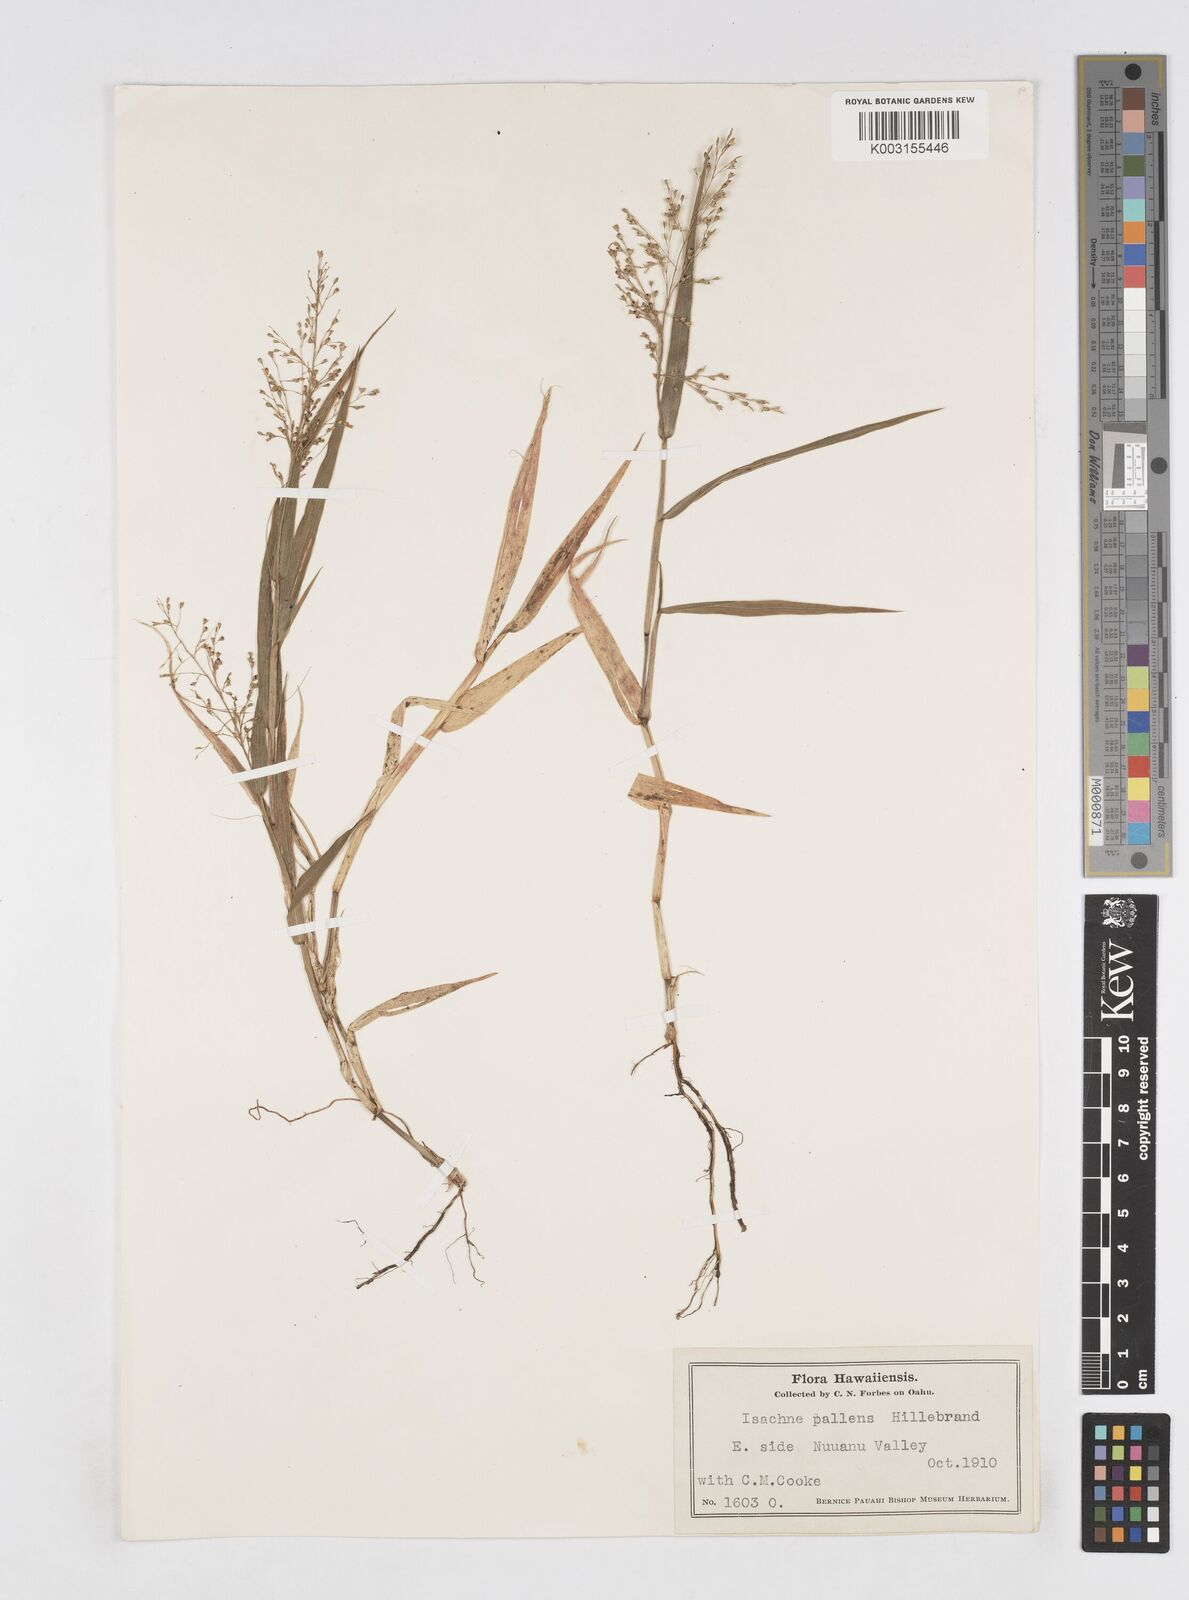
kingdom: Plantae
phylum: Tracheophyta
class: Liliopsida
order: Poales
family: Poaceae
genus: Isachne
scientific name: Isachne pallens
